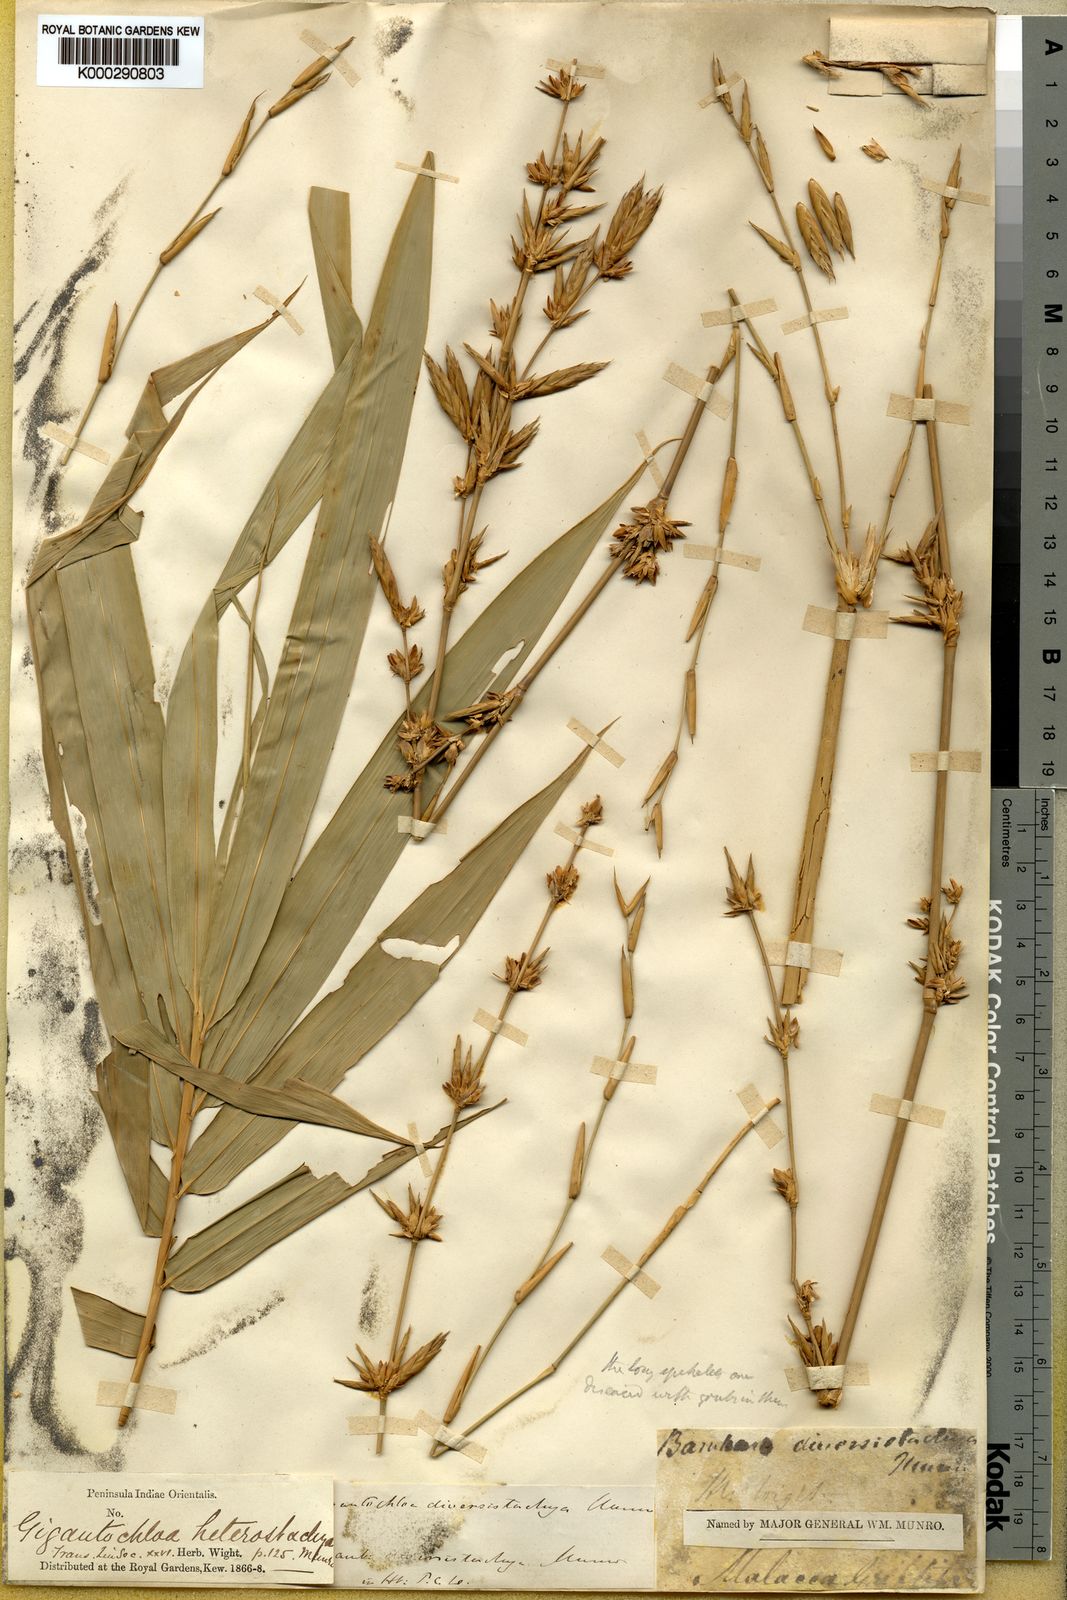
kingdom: Plantae
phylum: Tracheophyta
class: Liliopsida
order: Poales
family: Poaceae
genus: Bambusa
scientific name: Bambusa heterostachya
